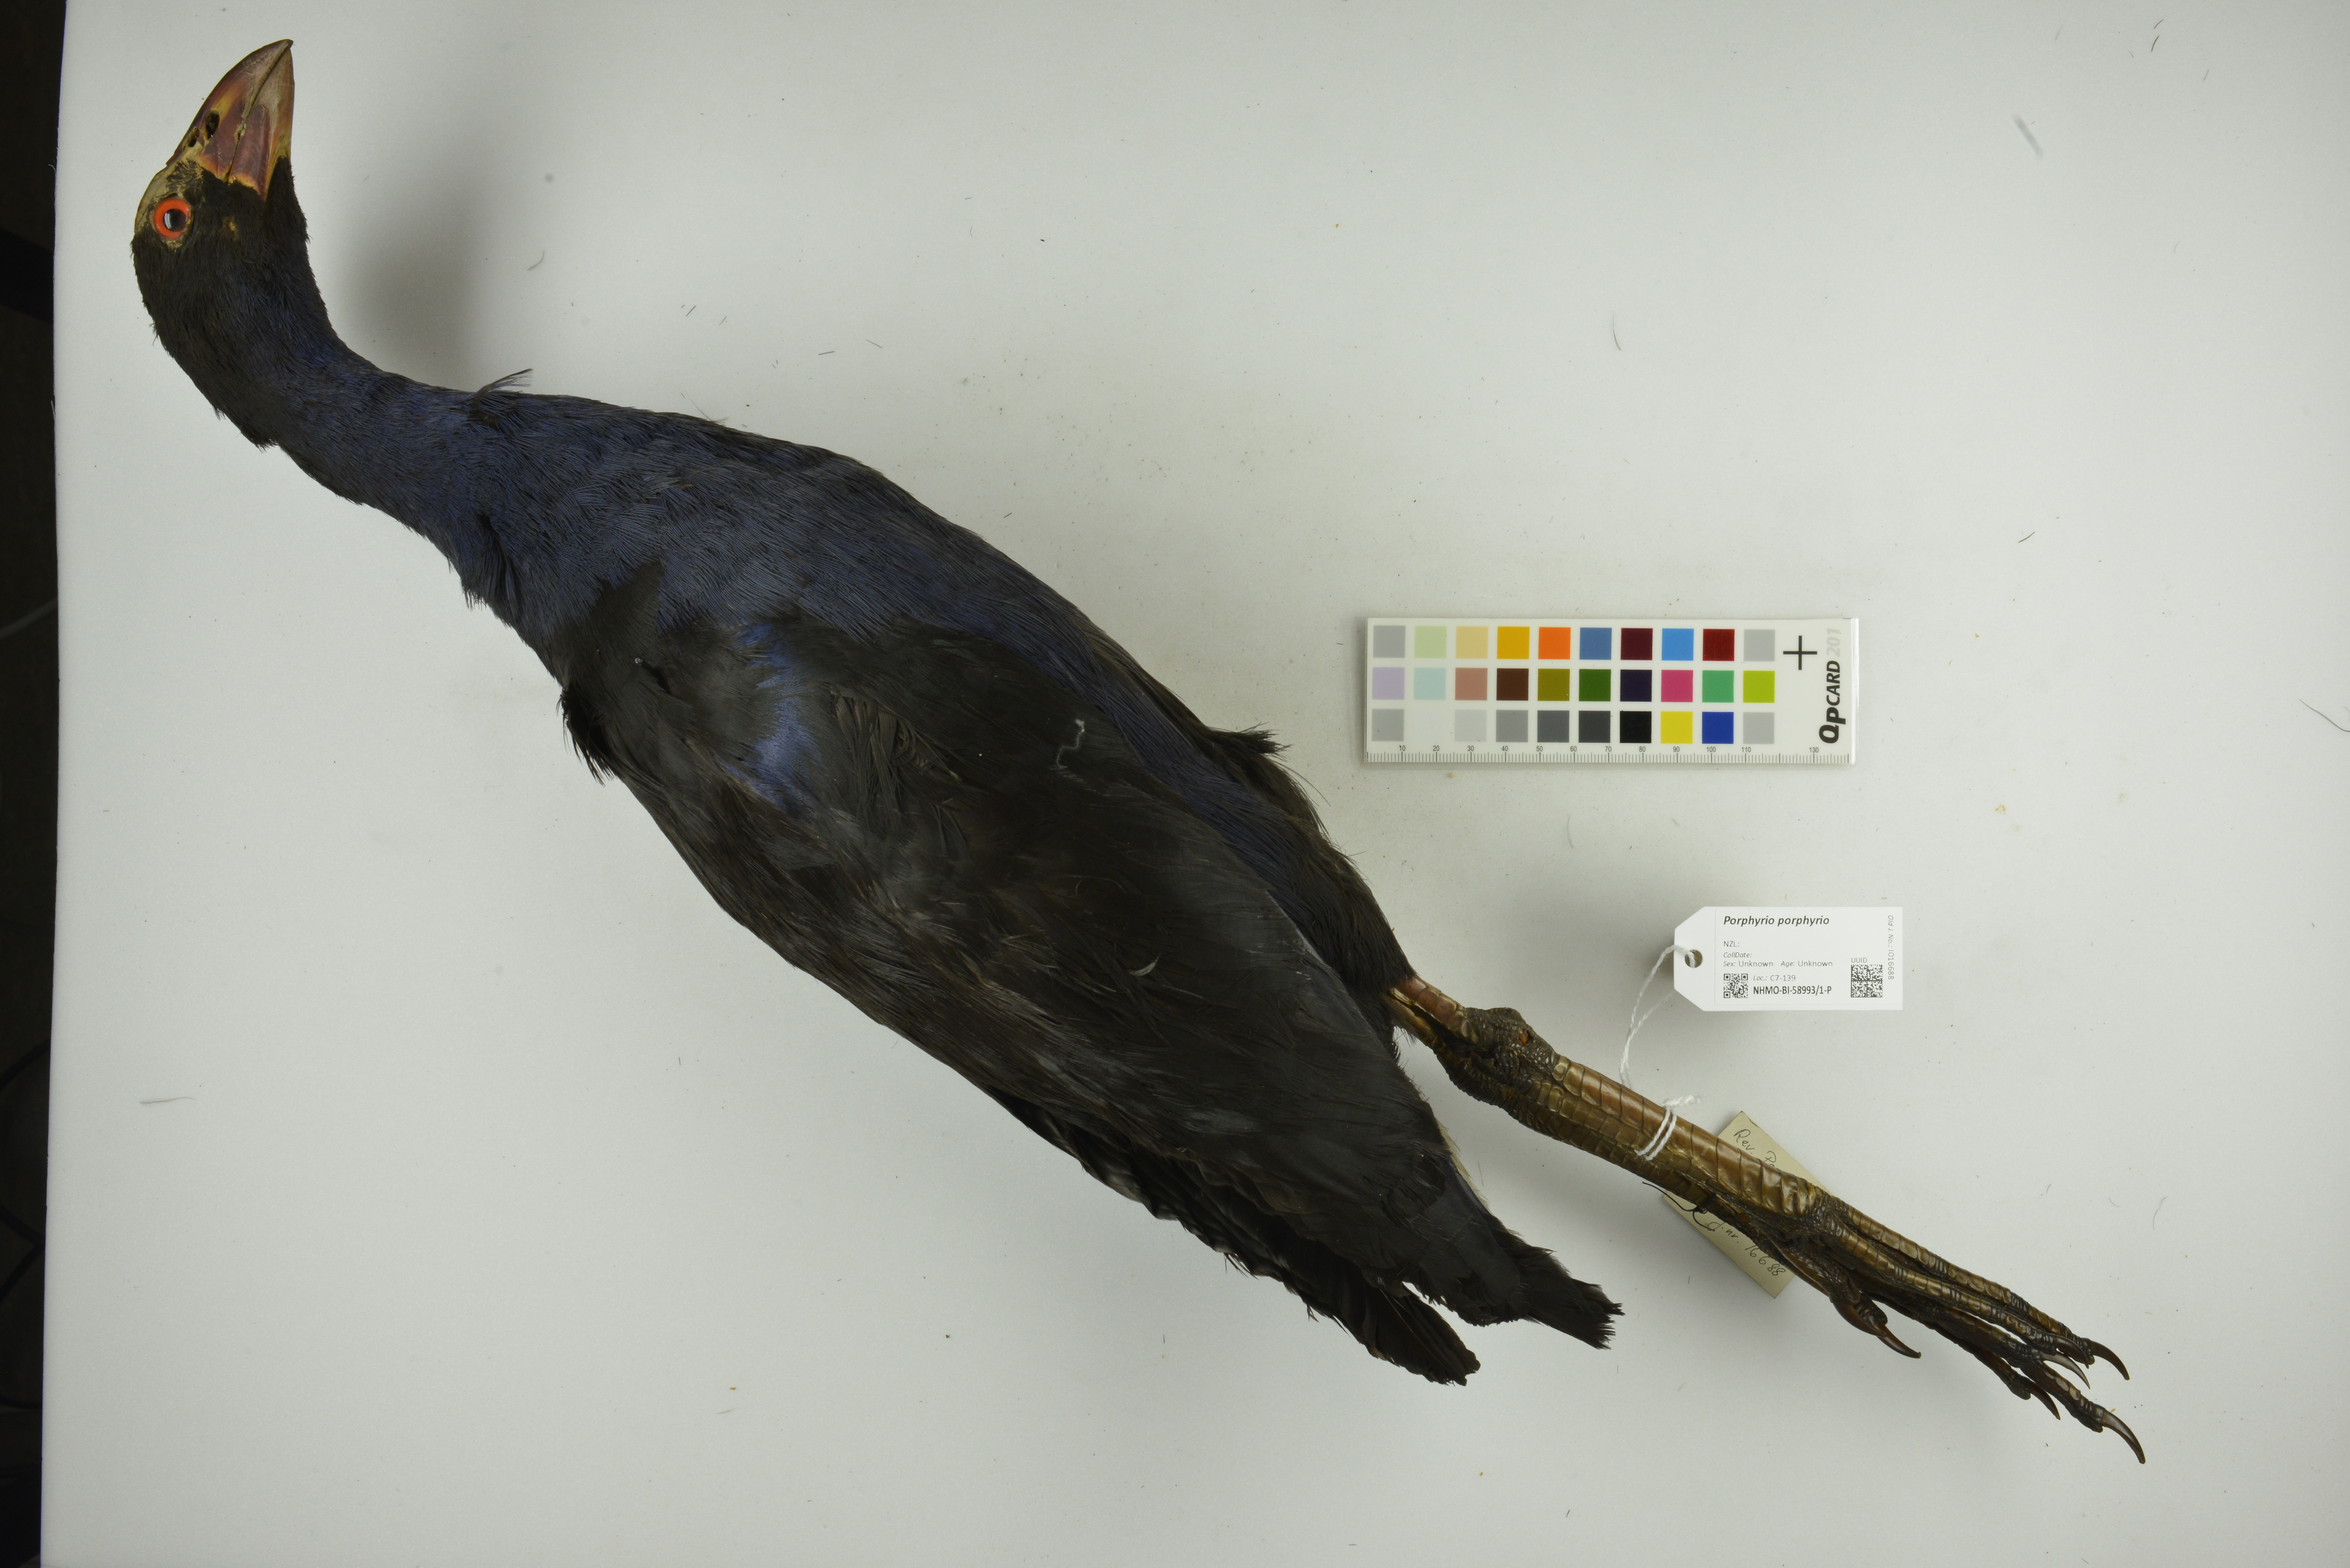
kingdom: Animalia
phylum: Chordata
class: Aves
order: Gruiformes
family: Rallidae
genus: Porphyrio
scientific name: Porphyrio porphyrio
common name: Purple swamphen
